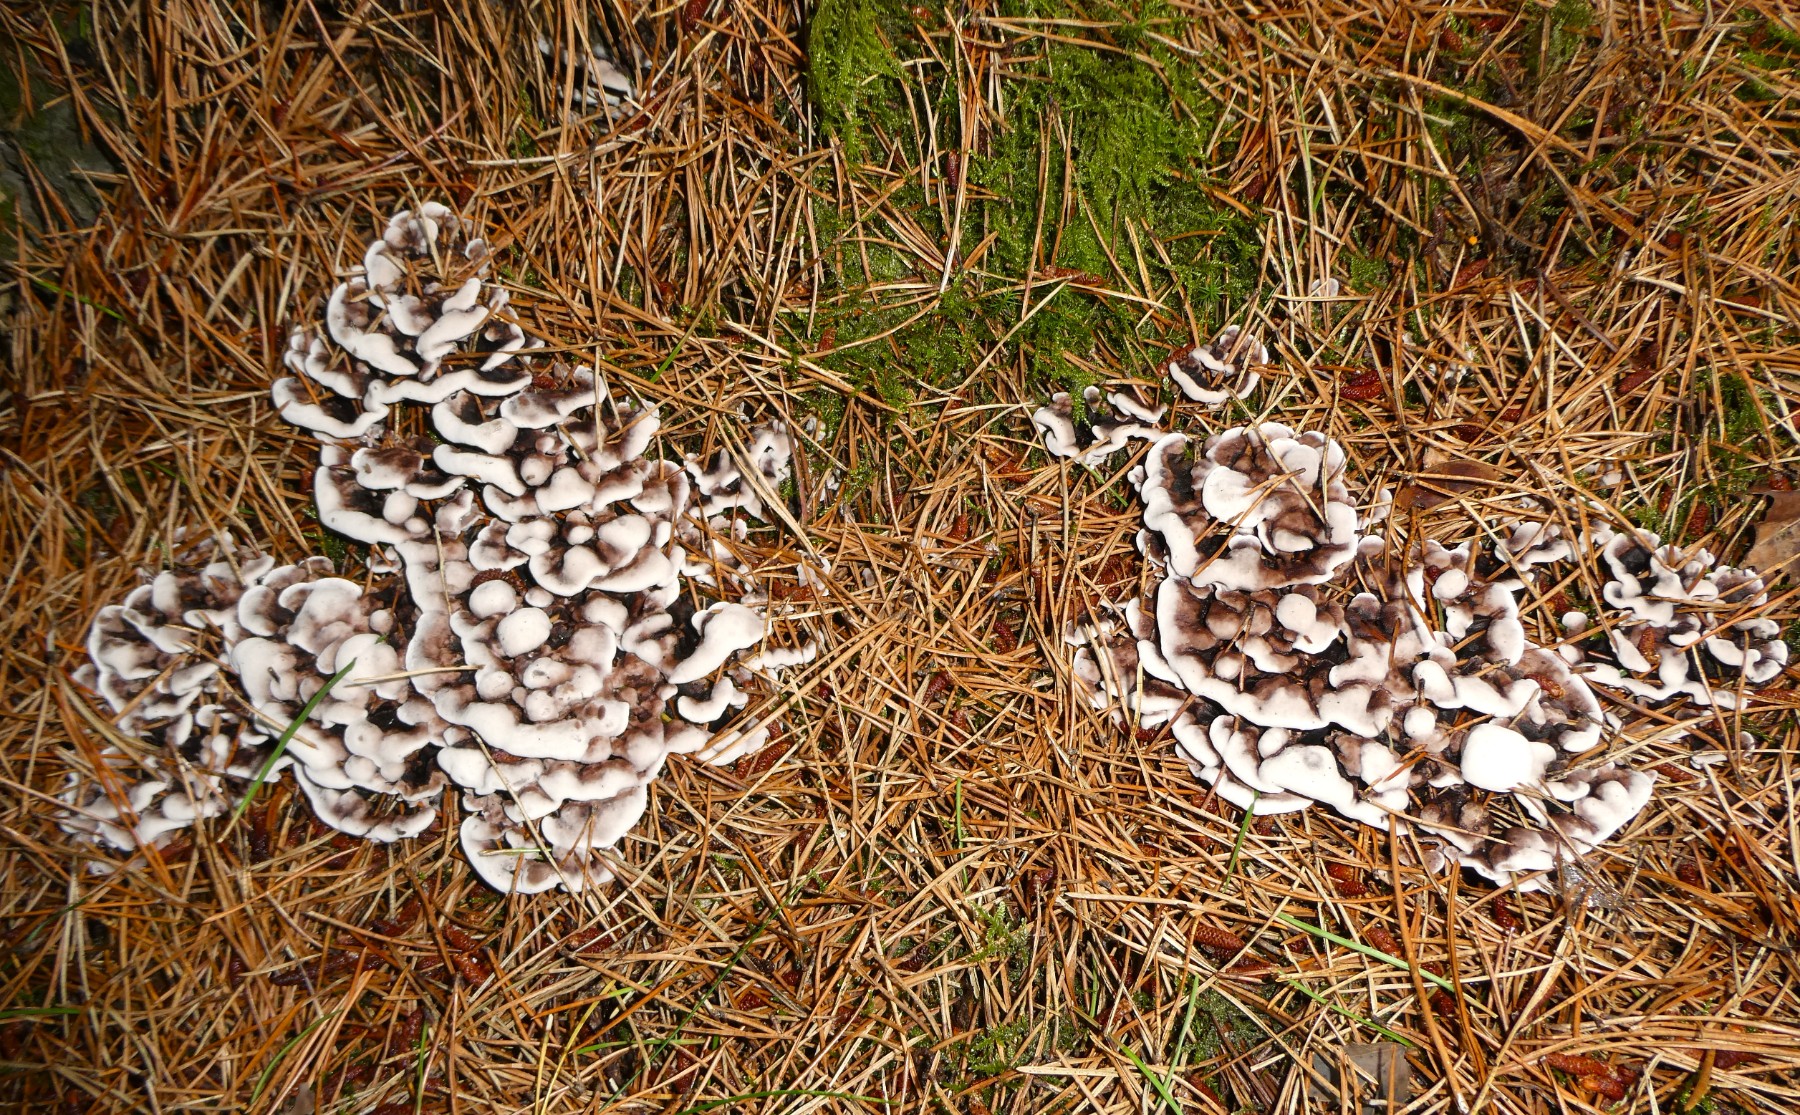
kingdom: Fungi
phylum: Basidiomycota
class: Agaricomycetes
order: Thelephorales
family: Thelephoraceae
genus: Phellodon
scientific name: Phellodon tomentosus
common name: tragtformet duftpigsvamp
